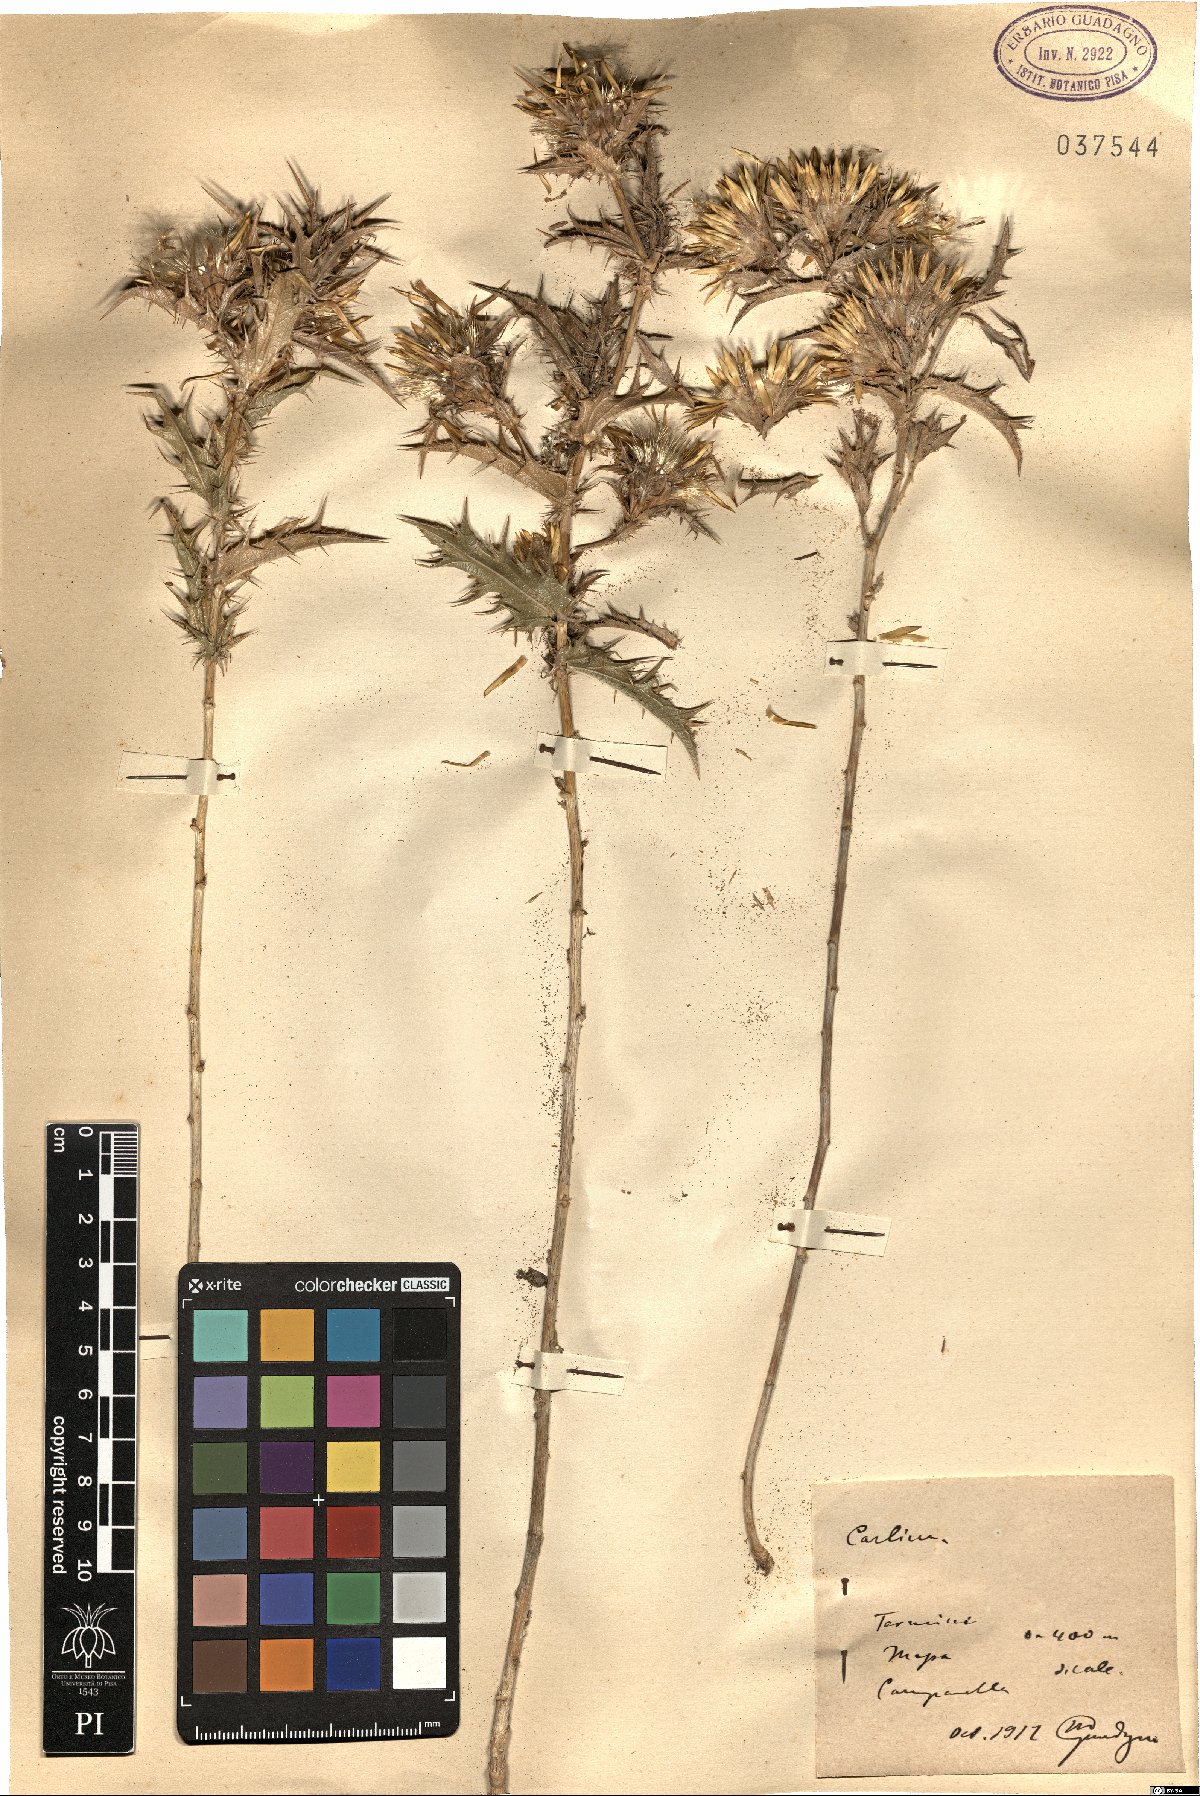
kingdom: Plantae
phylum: Tracheophyta
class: Magnoliopsida
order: Asterales
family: Asteraceae
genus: Carlina
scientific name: Carlina
